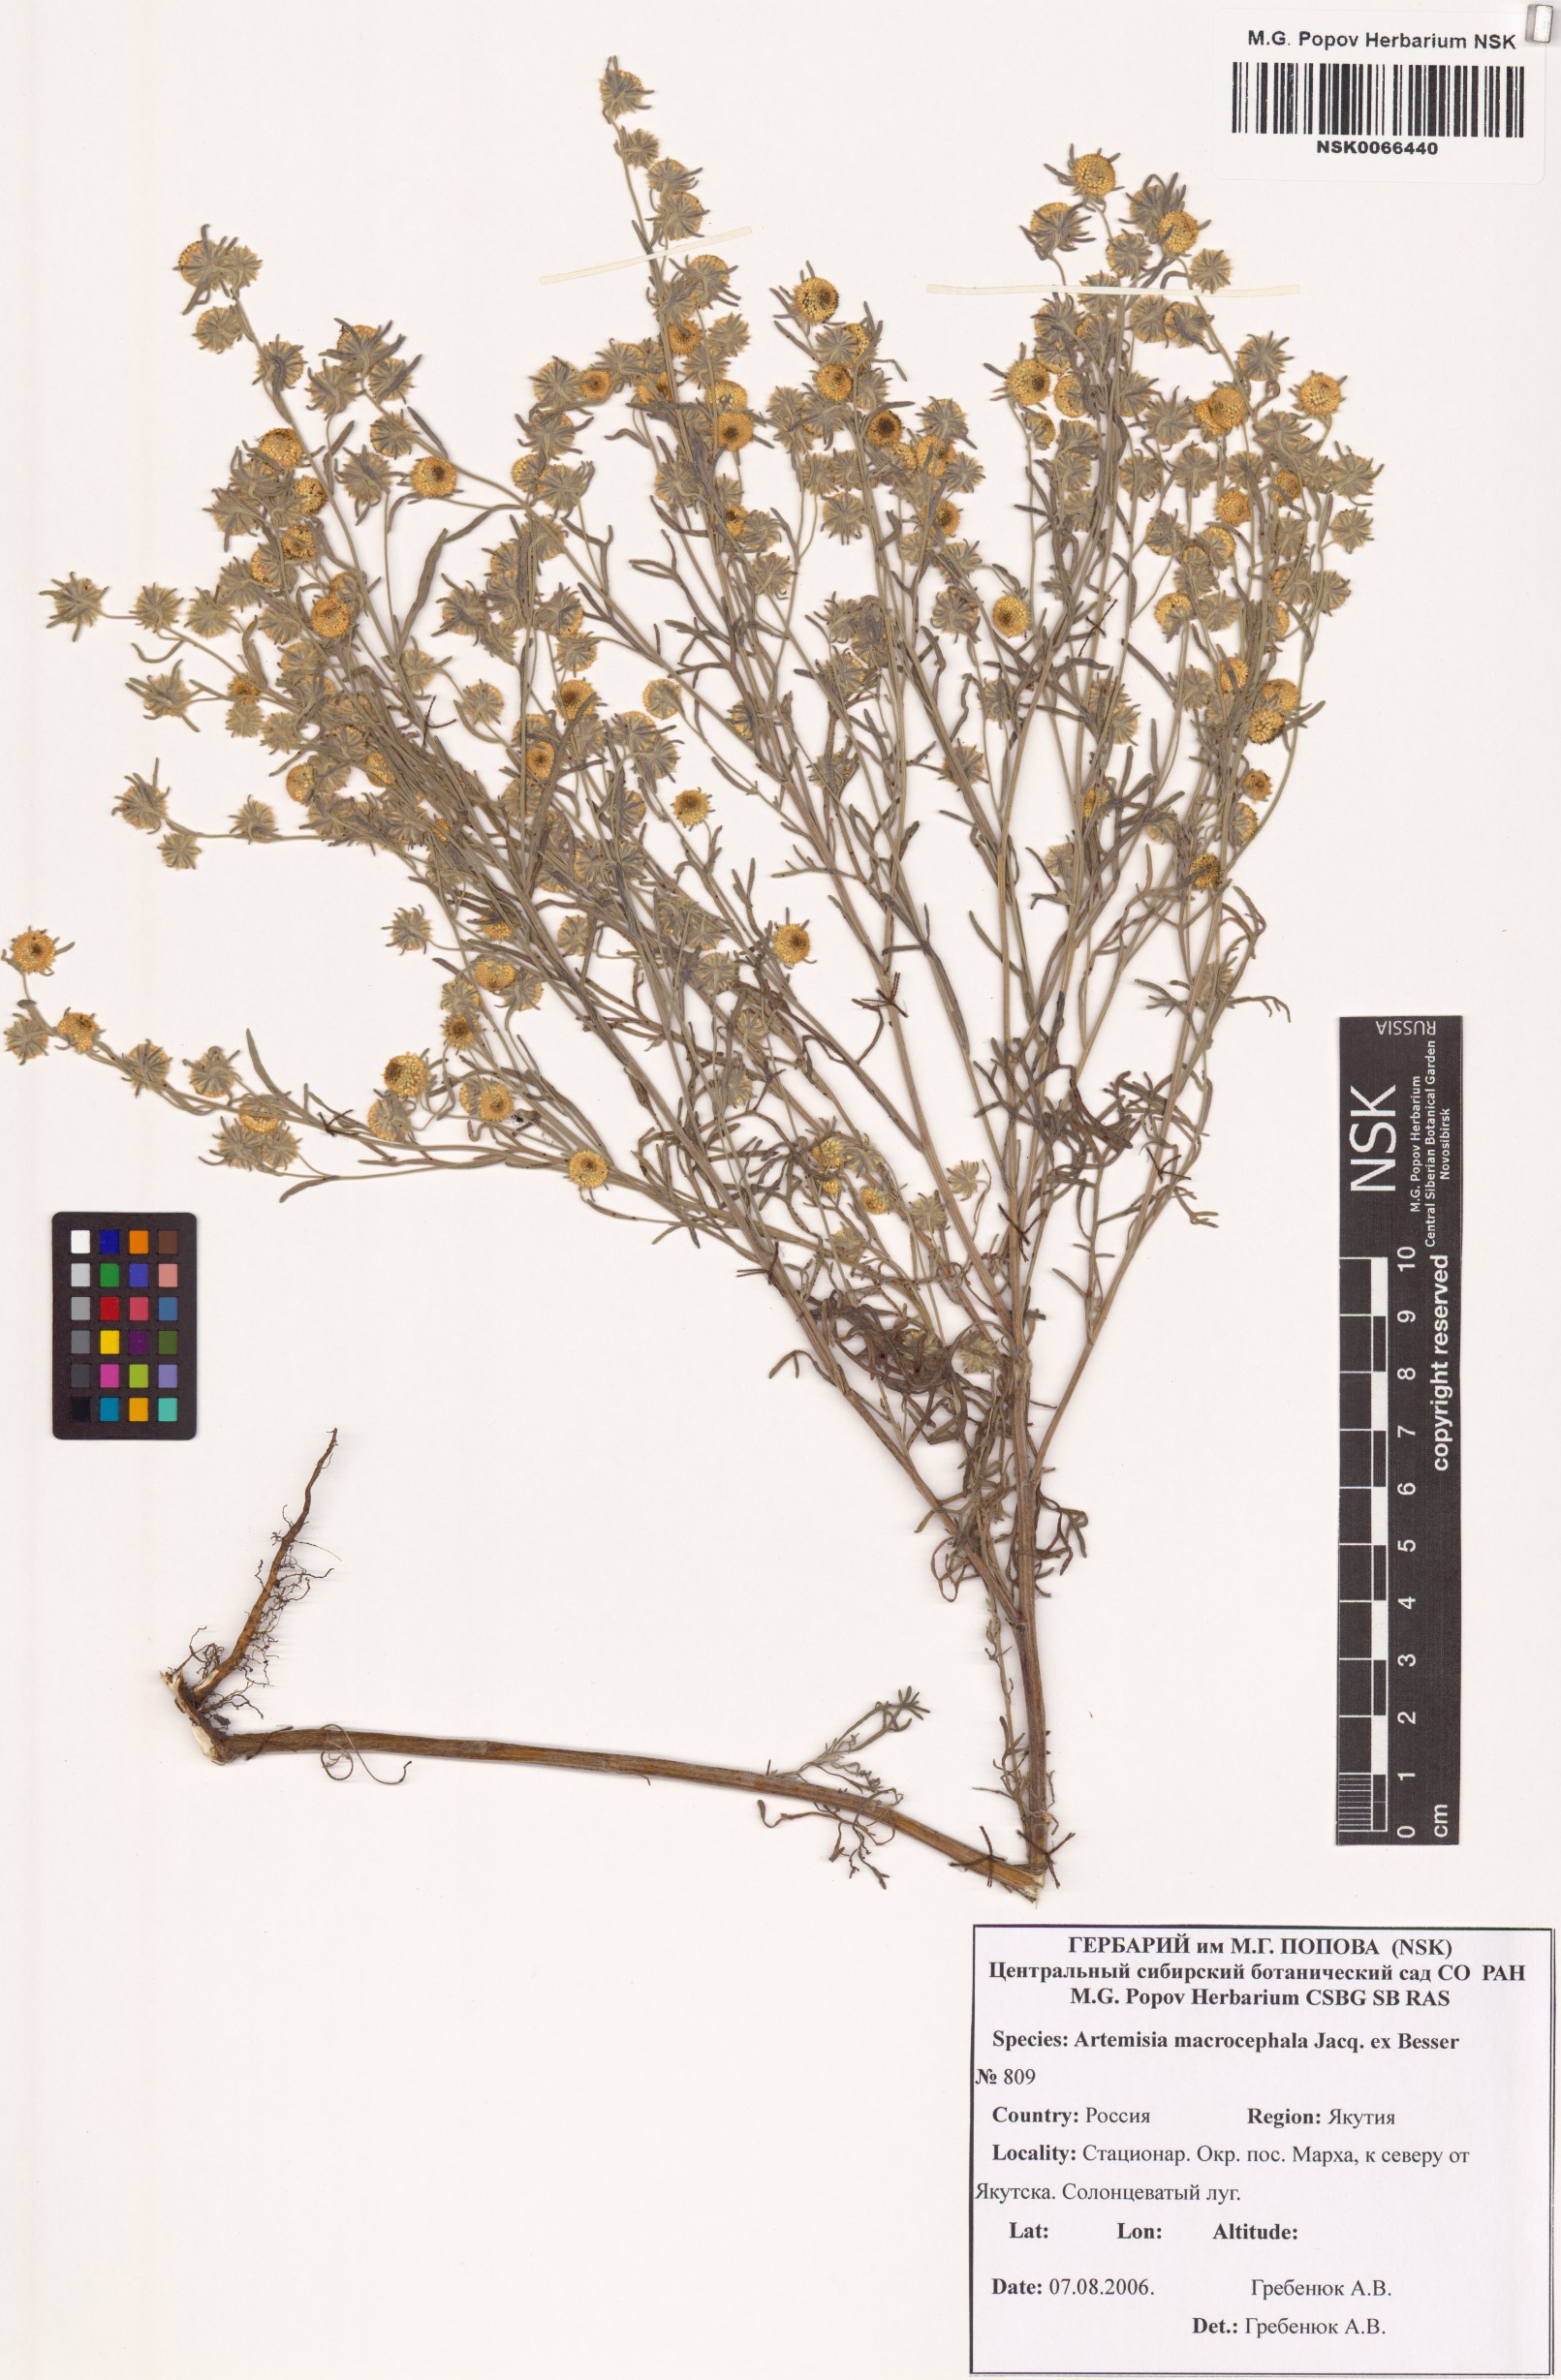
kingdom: Plantae
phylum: Tracheophyta
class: Magnoliopsida
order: Asterales
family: Asteraceae
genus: Artemisia
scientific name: Artemisia macrocephala
